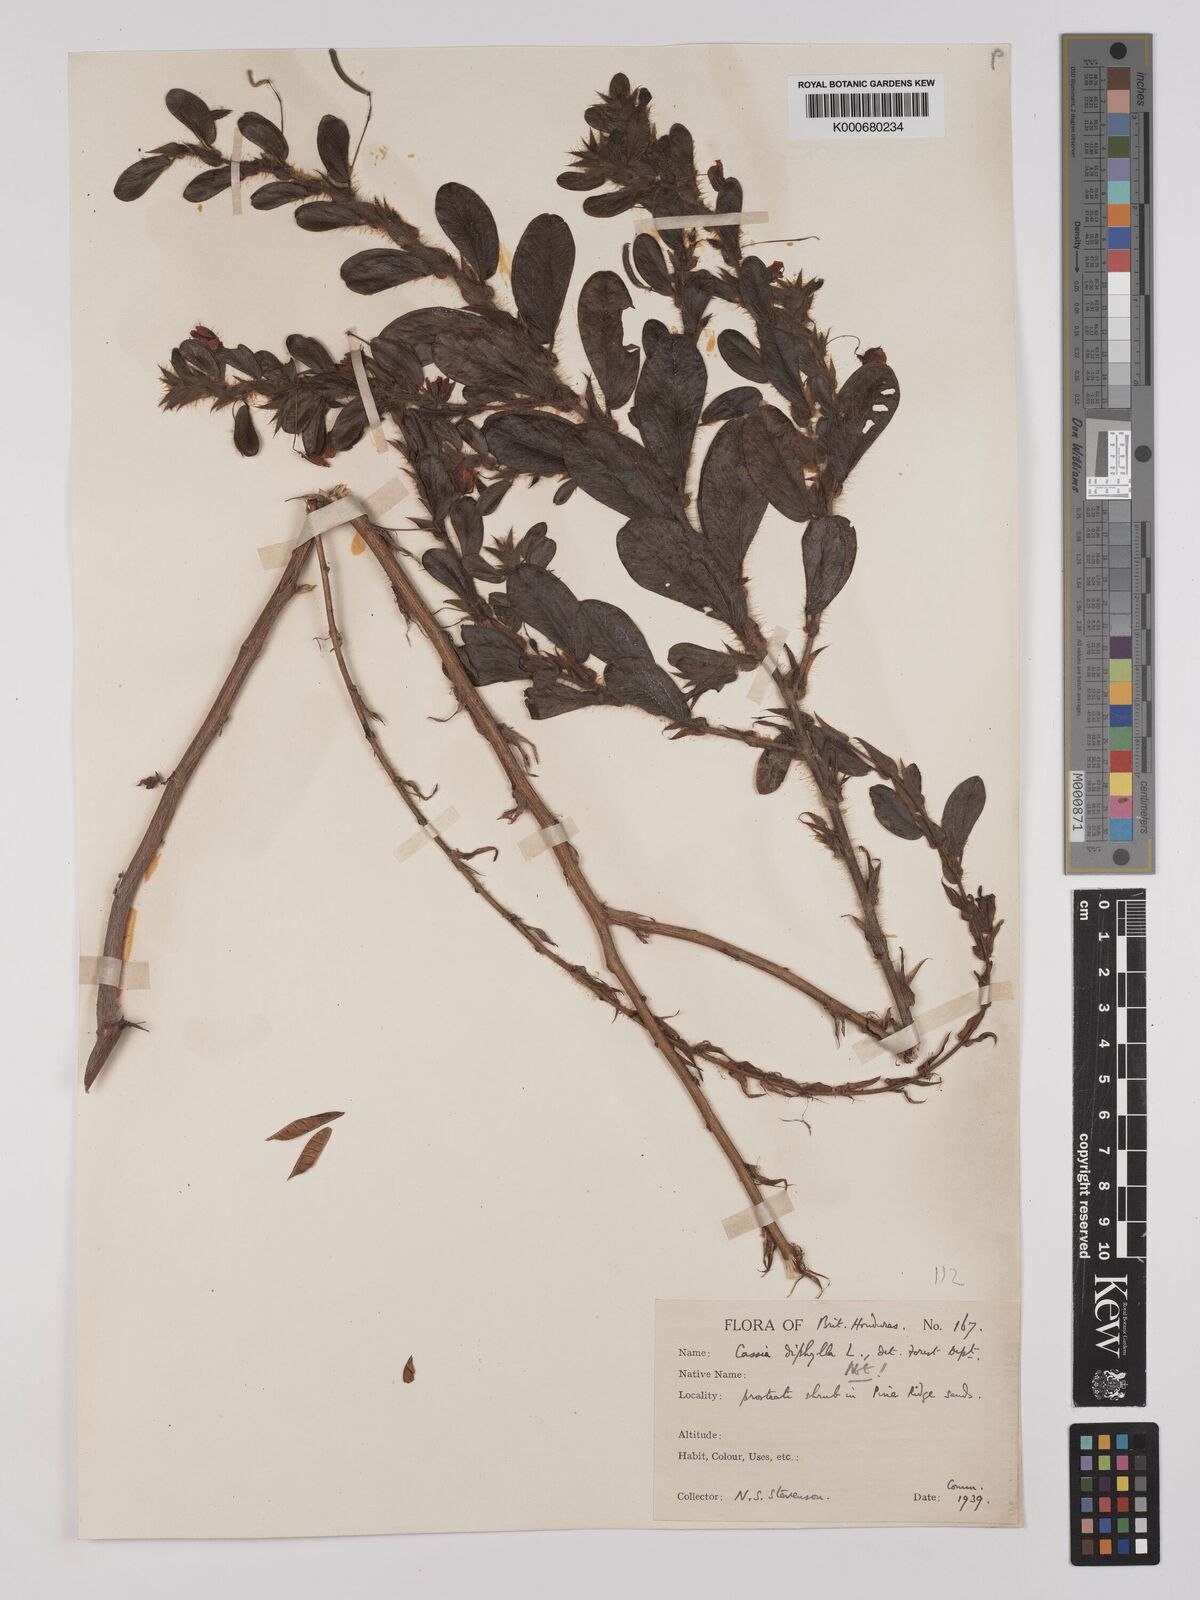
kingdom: Plantae
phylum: Tracheophyta
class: Magnoliopsida
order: Fabales
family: Fabaceae
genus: Chamaecrista
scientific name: Chamaecrista rotundifolia
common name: Round-leaf cassia
